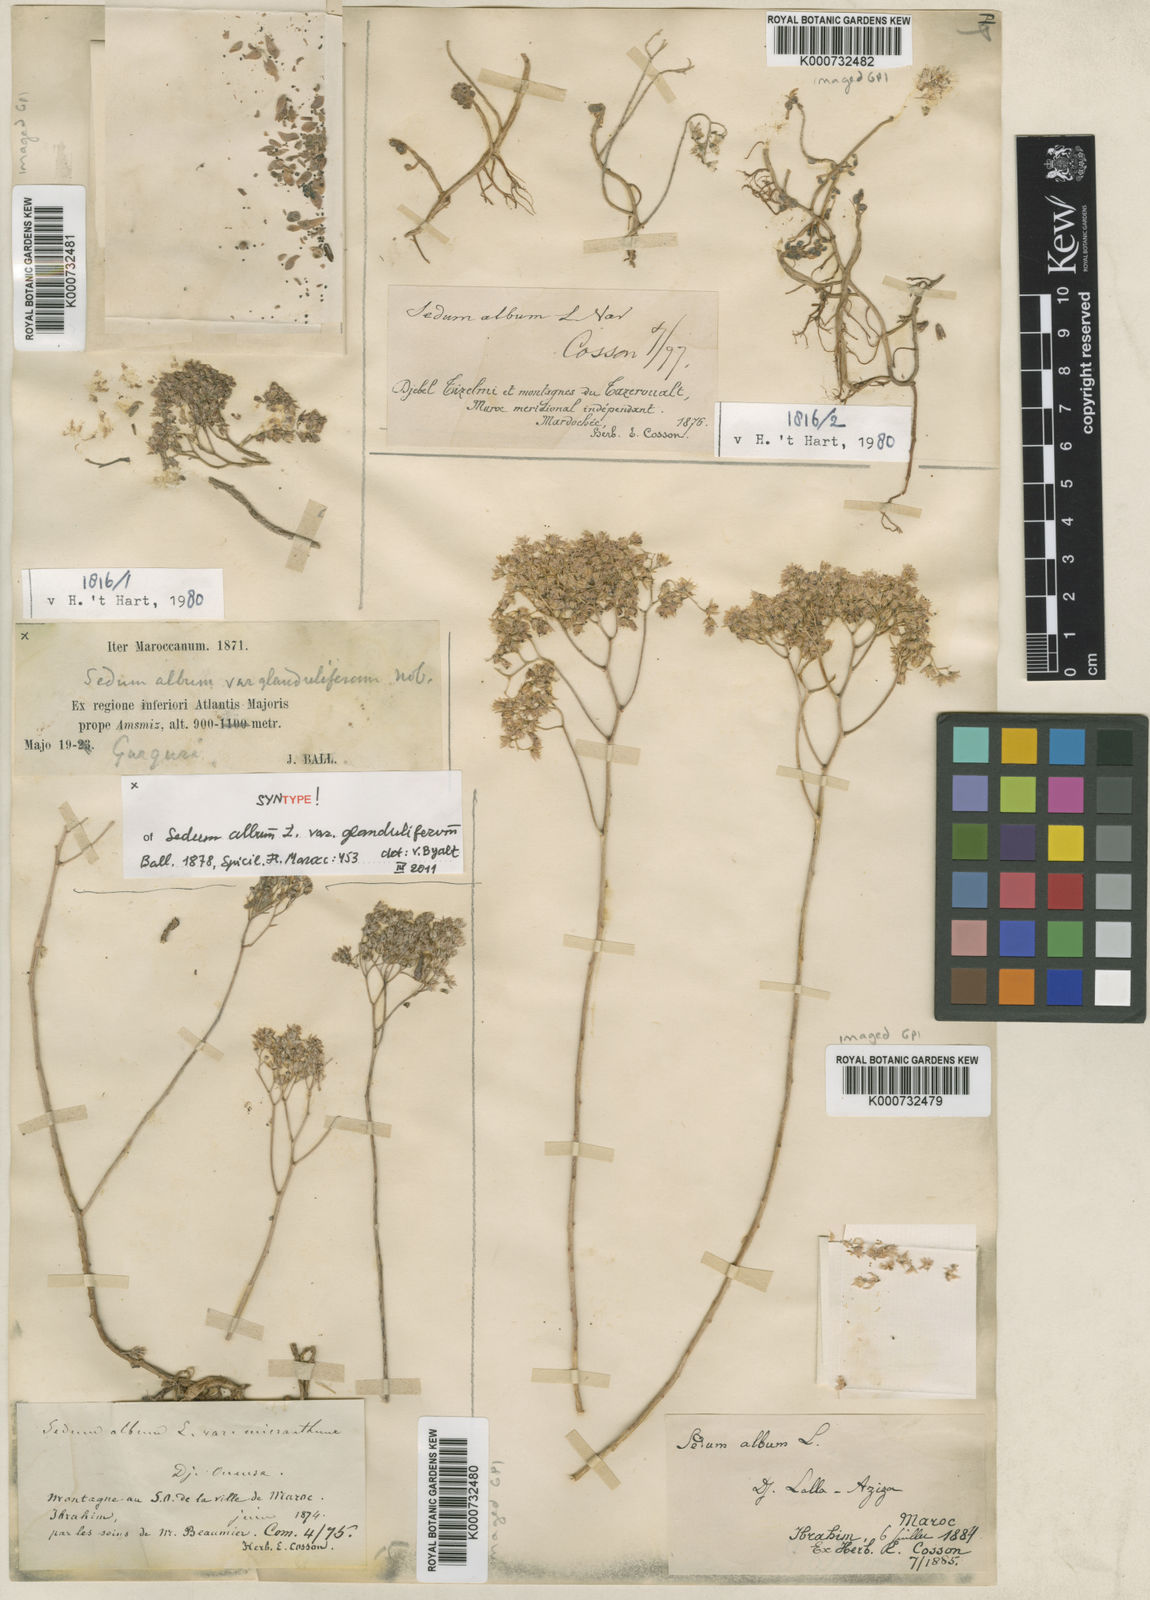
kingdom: Plantae
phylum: Tracheophyta
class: Magnoliopsida
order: Saxifragales
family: Crassulaceae
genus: Sedum
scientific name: Sedum album
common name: White stonecrop
